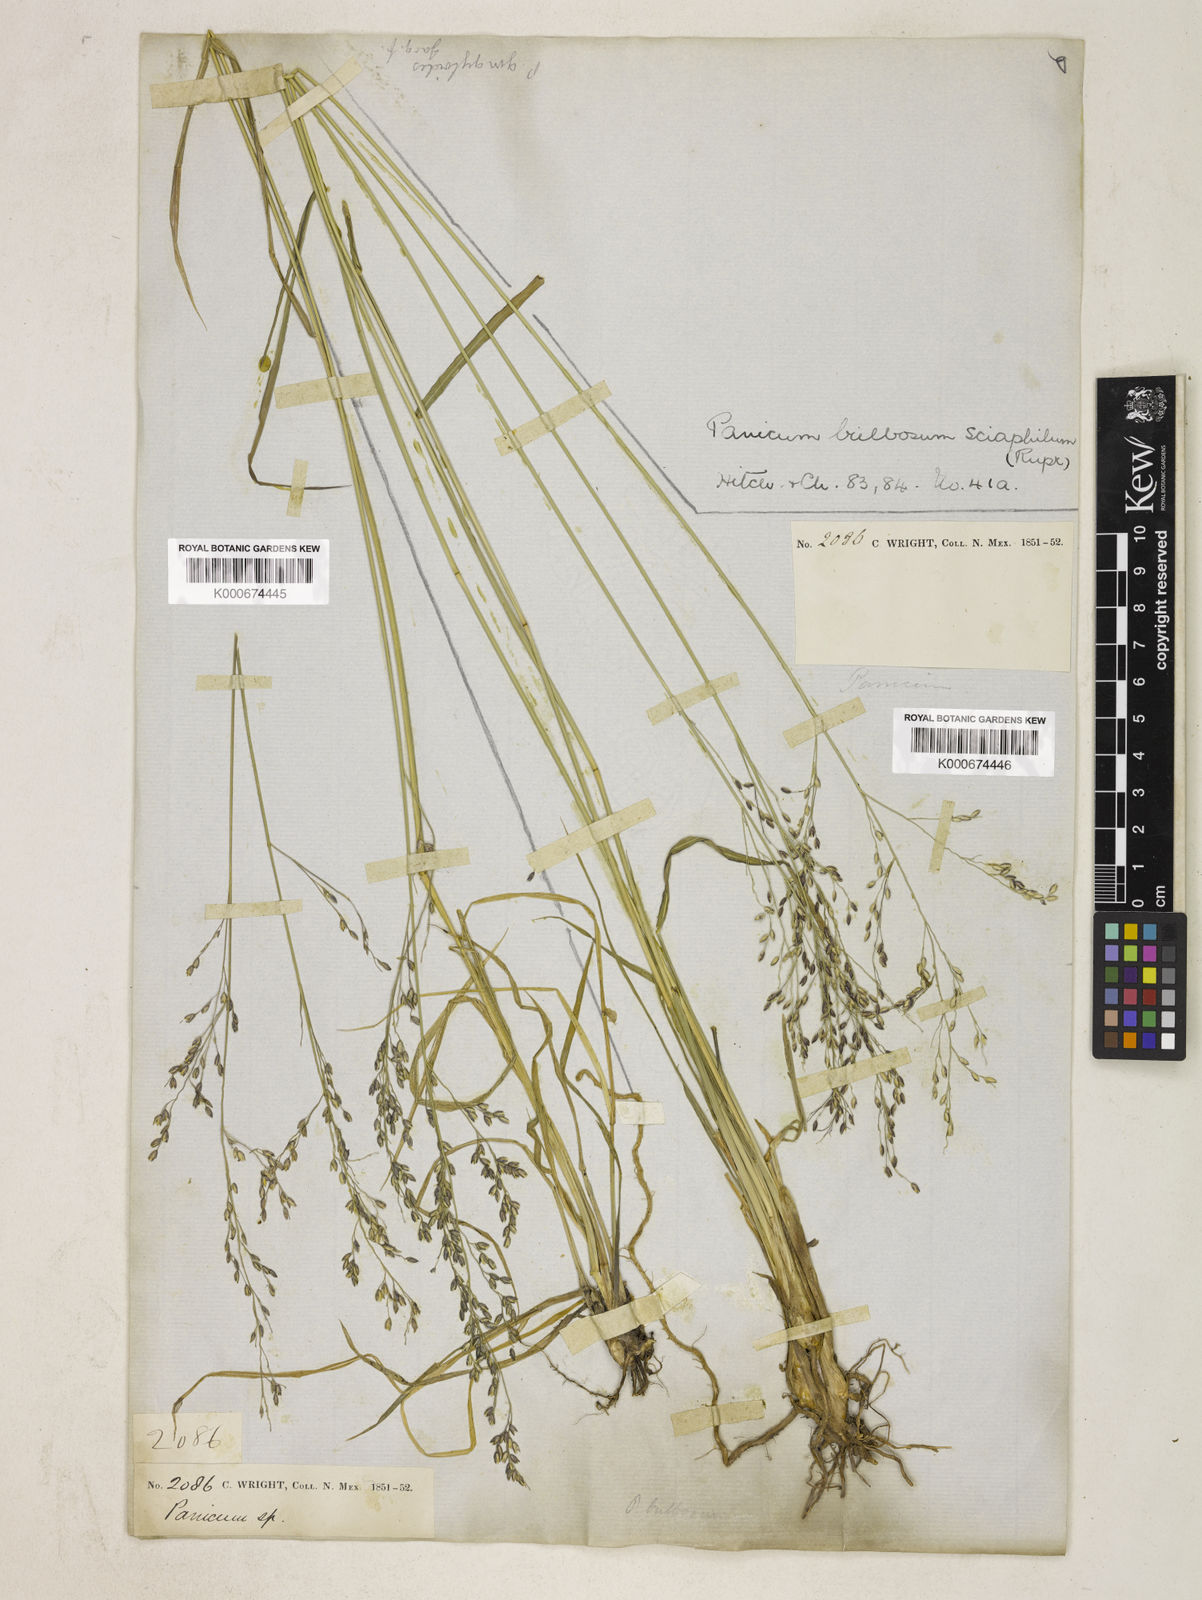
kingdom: Plantae
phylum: Tracheophyta
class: Liliopsida
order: Poales
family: Poaceae
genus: Zuloagaea
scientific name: Zuloagaea bulbosa
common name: Canyon panic grass
